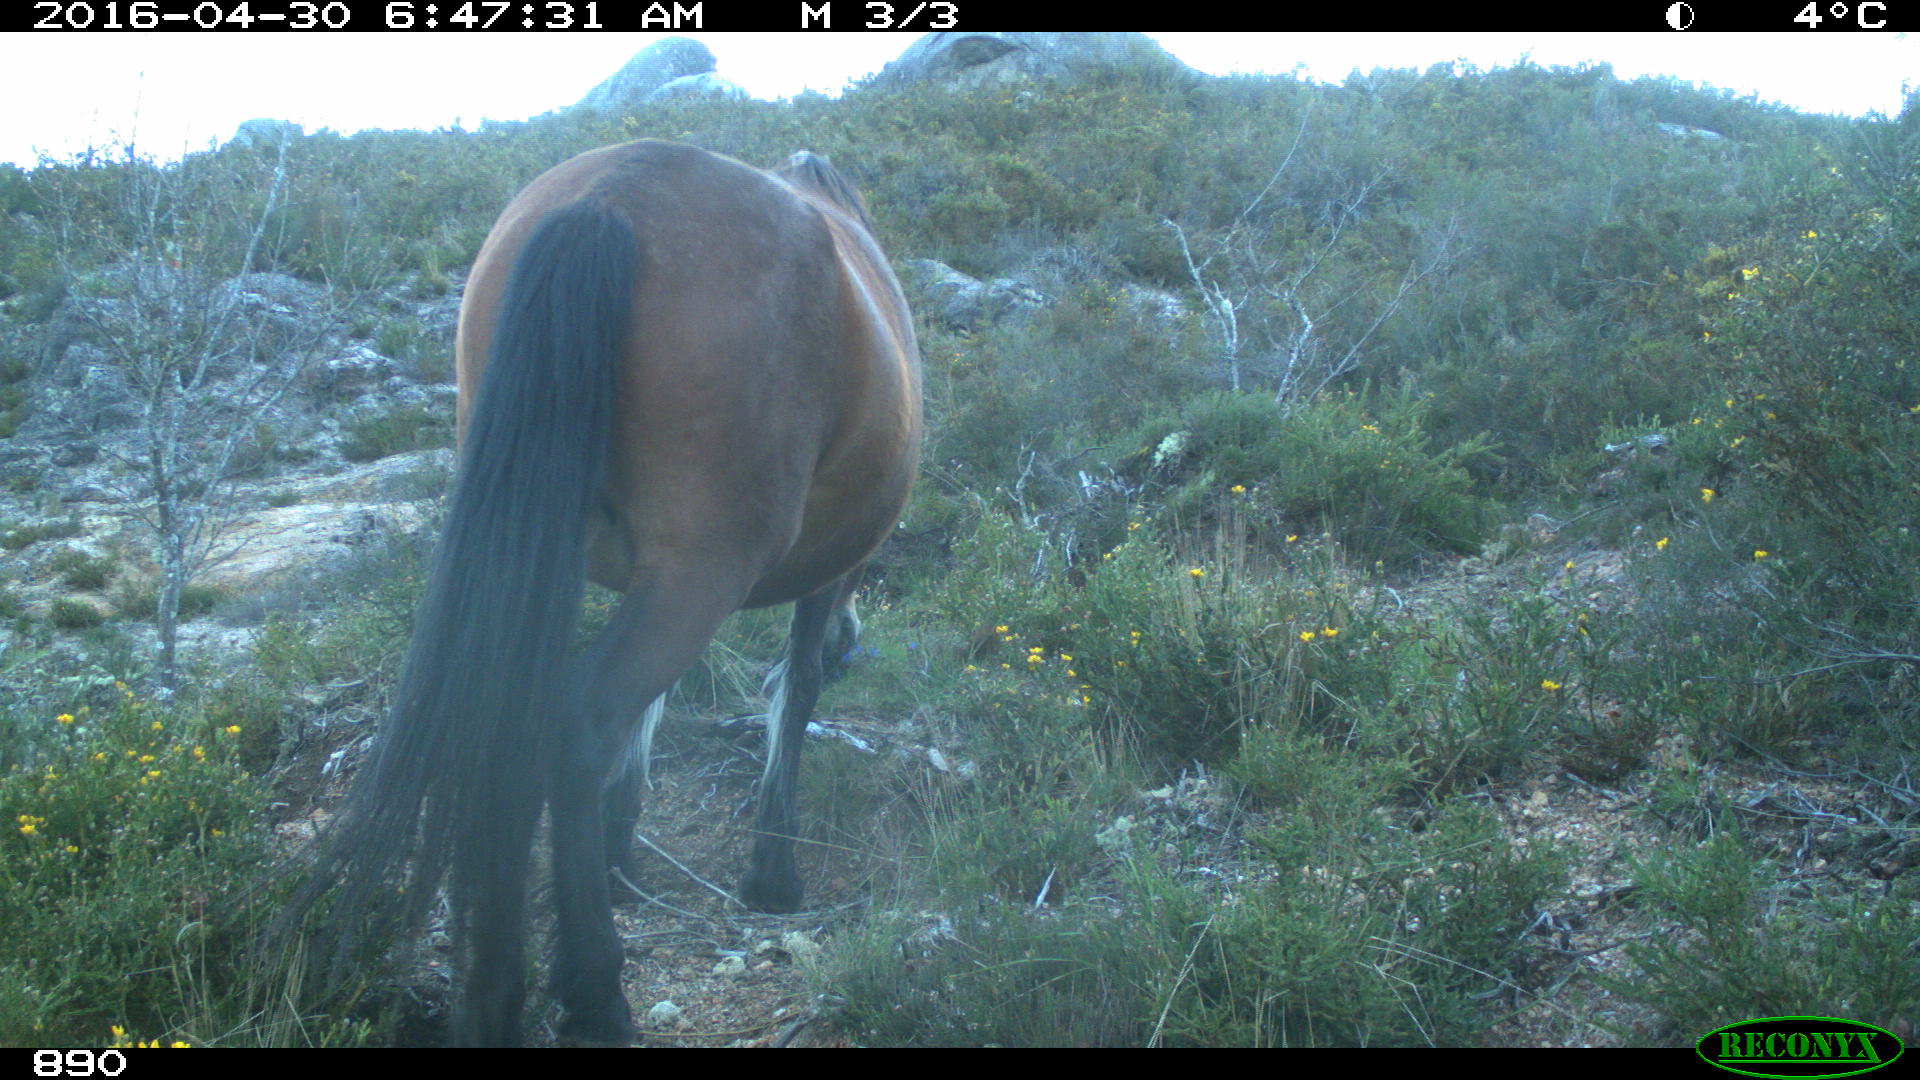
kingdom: Animalia
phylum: Chordata
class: Mammalia
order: Perissodactyla
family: Equidae
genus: Equus
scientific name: Equus caballus
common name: Horse
